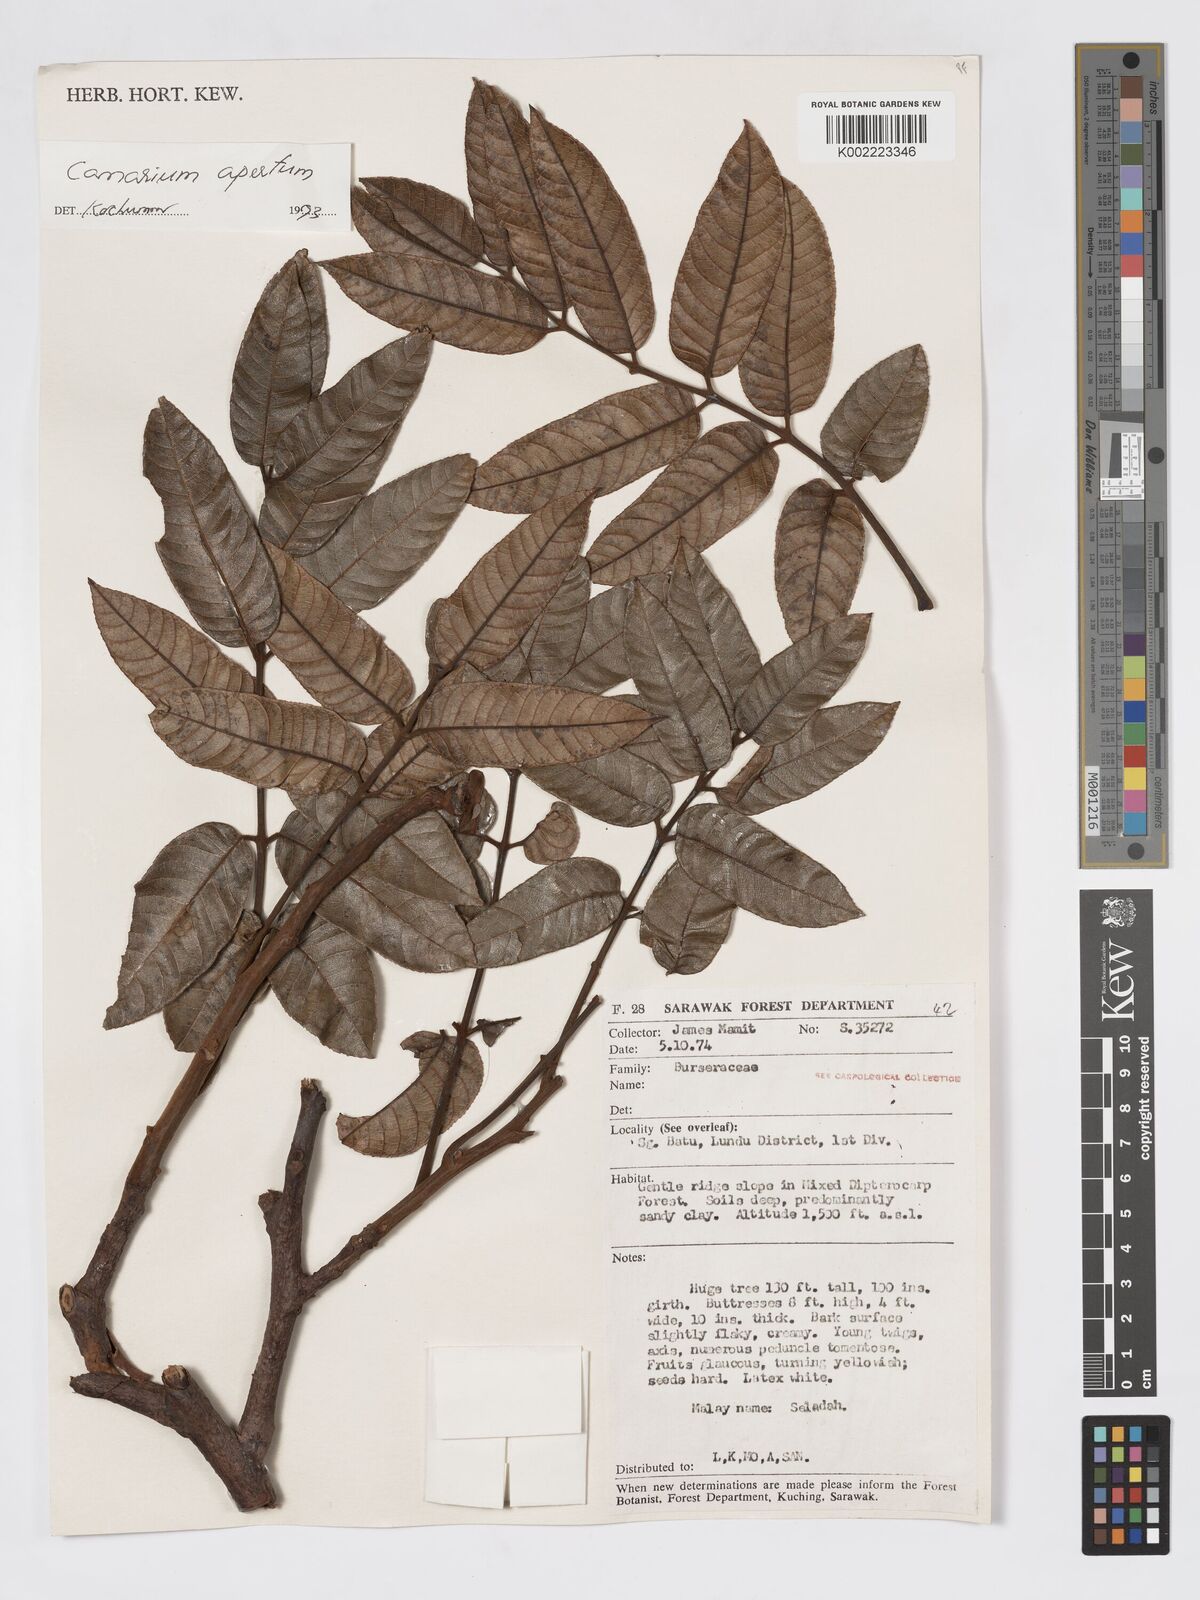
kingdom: Plantae
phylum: Tracheophyta
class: Magnoliopsida
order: Sapindales
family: Burseraceae
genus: Canarium
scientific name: Canarium apertum
